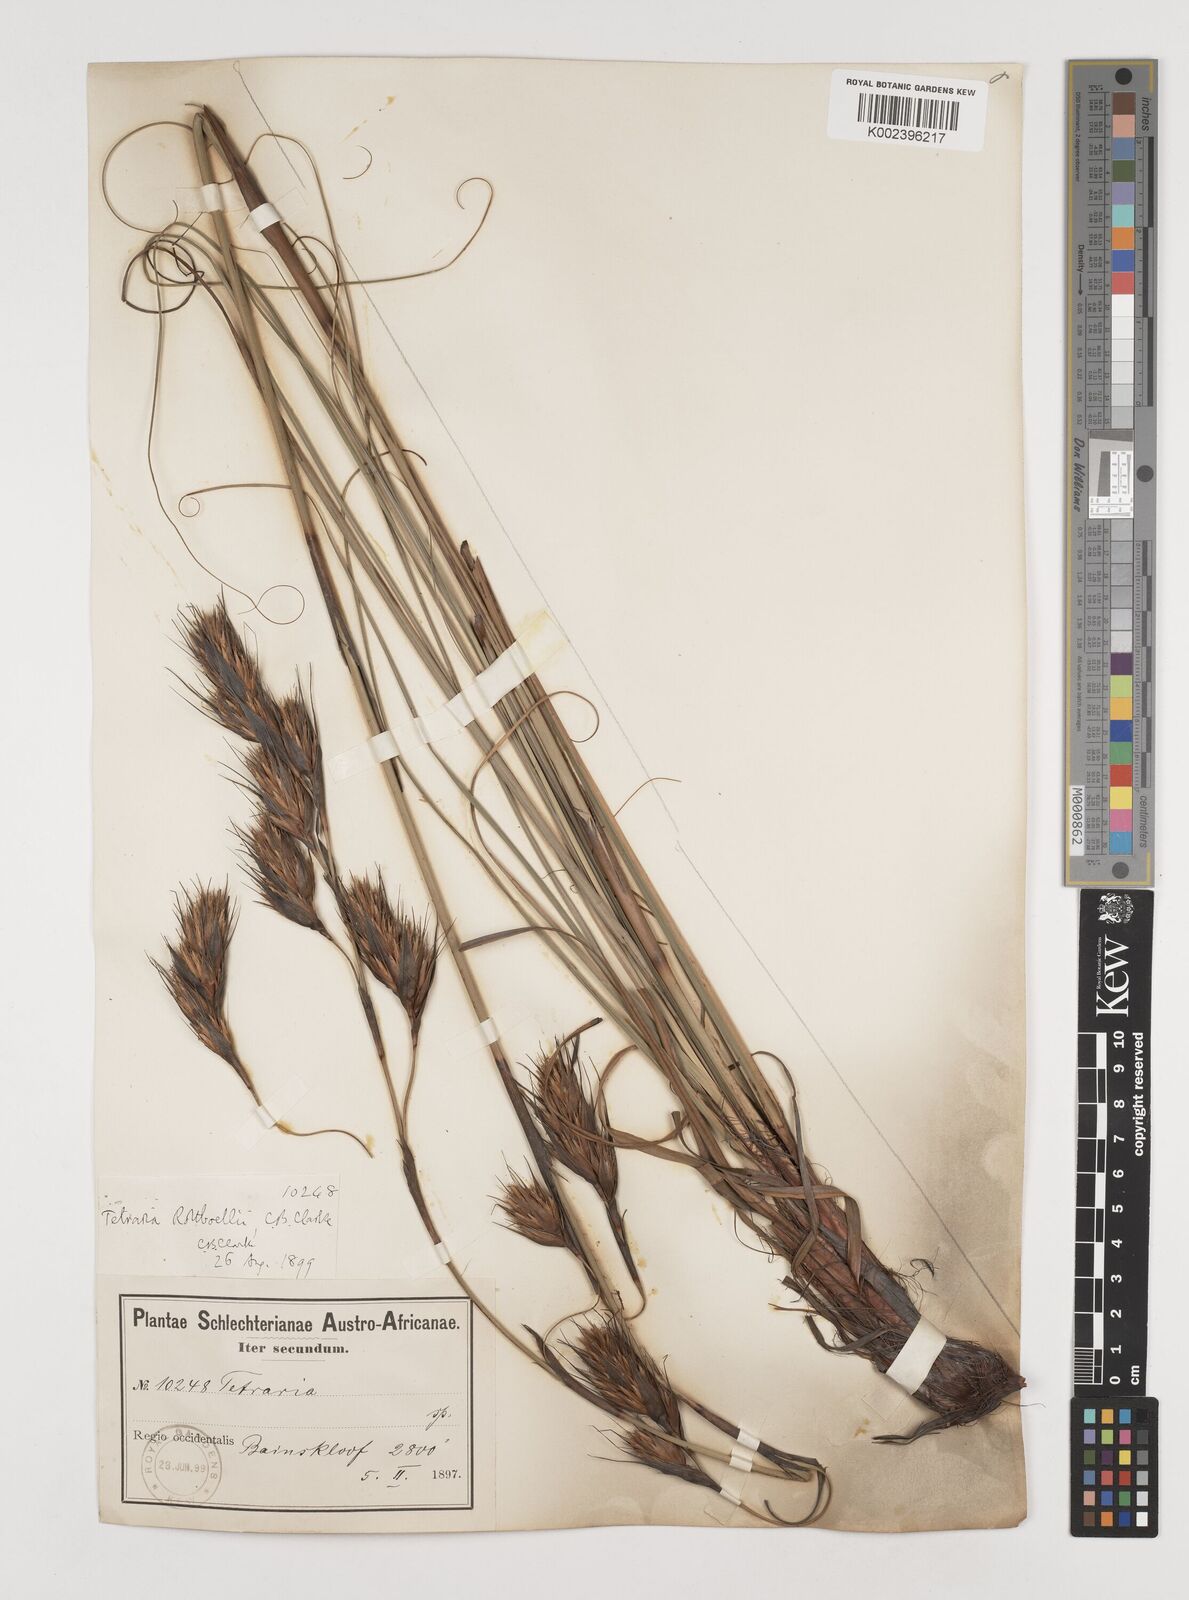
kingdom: Plantae
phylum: Tracheophyta
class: Liliopsida
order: Poales
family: Cyperaceae
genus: Tetraria
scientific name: Tetraria bromoides
